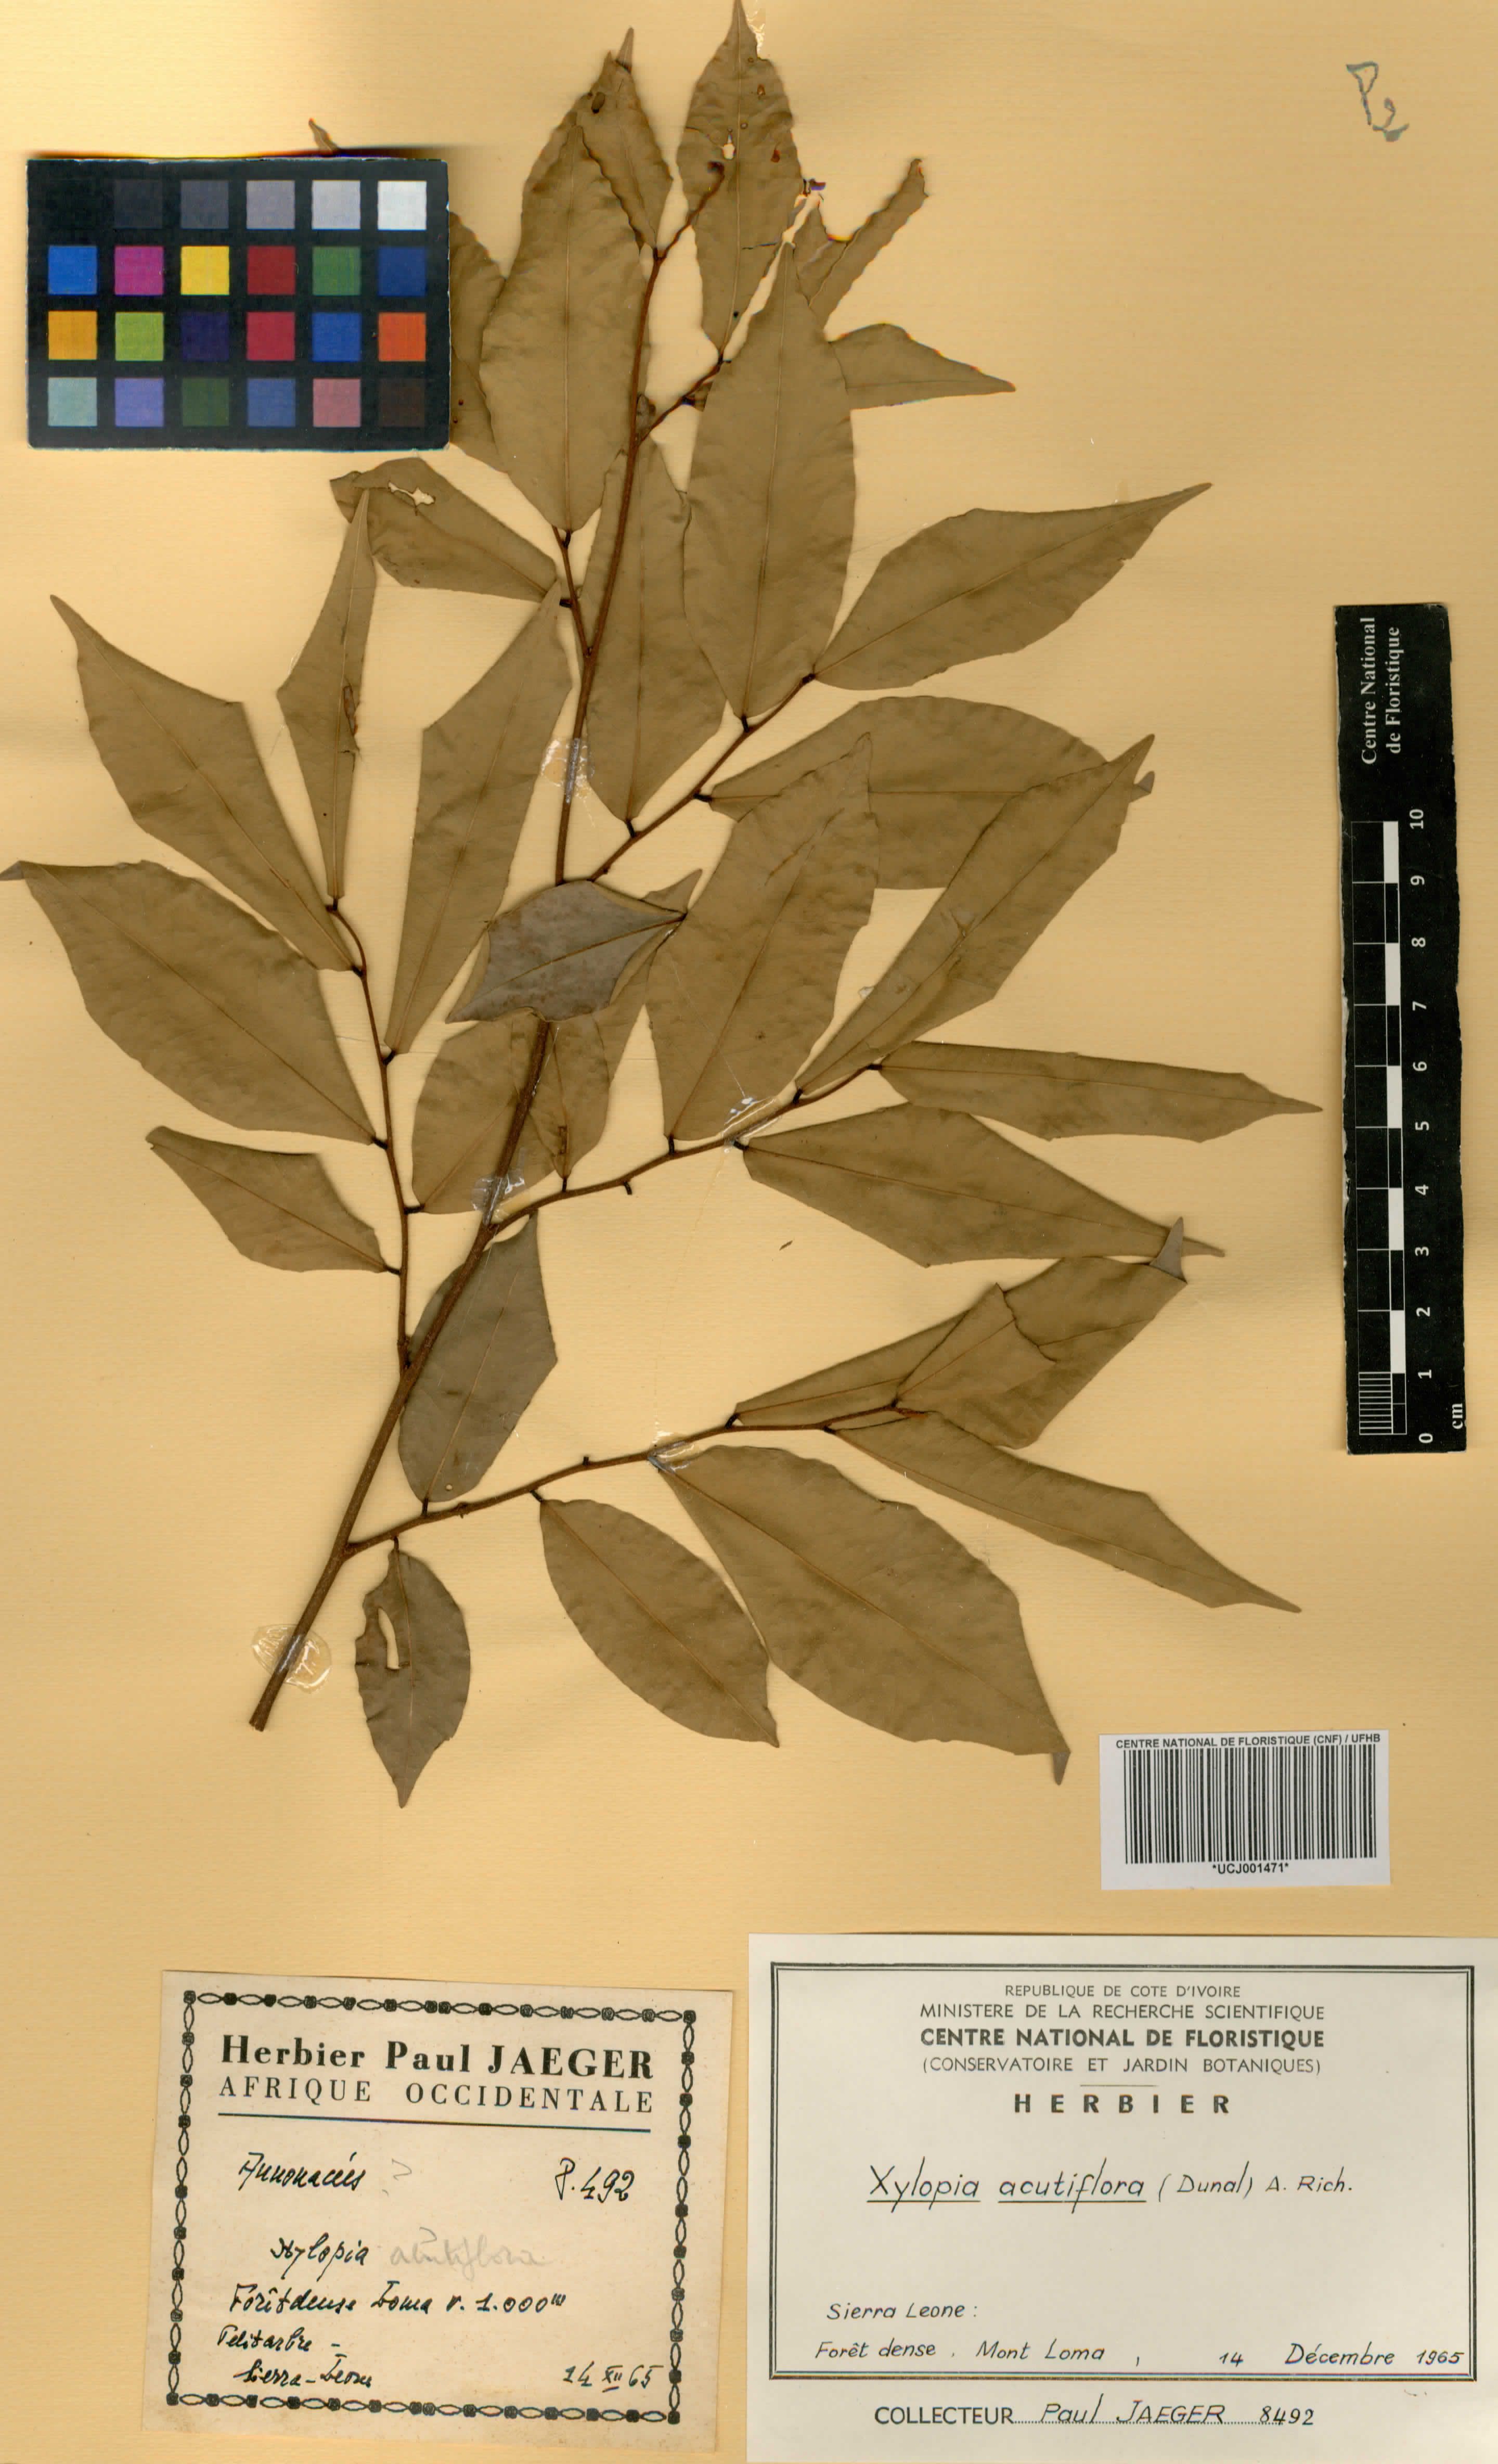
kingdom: Plantae
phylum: Tracheophyta
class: Magnoliopsida
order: Magnoliales
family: Annonaceae
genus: Xylopia
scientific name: Xylopia acutiflora
